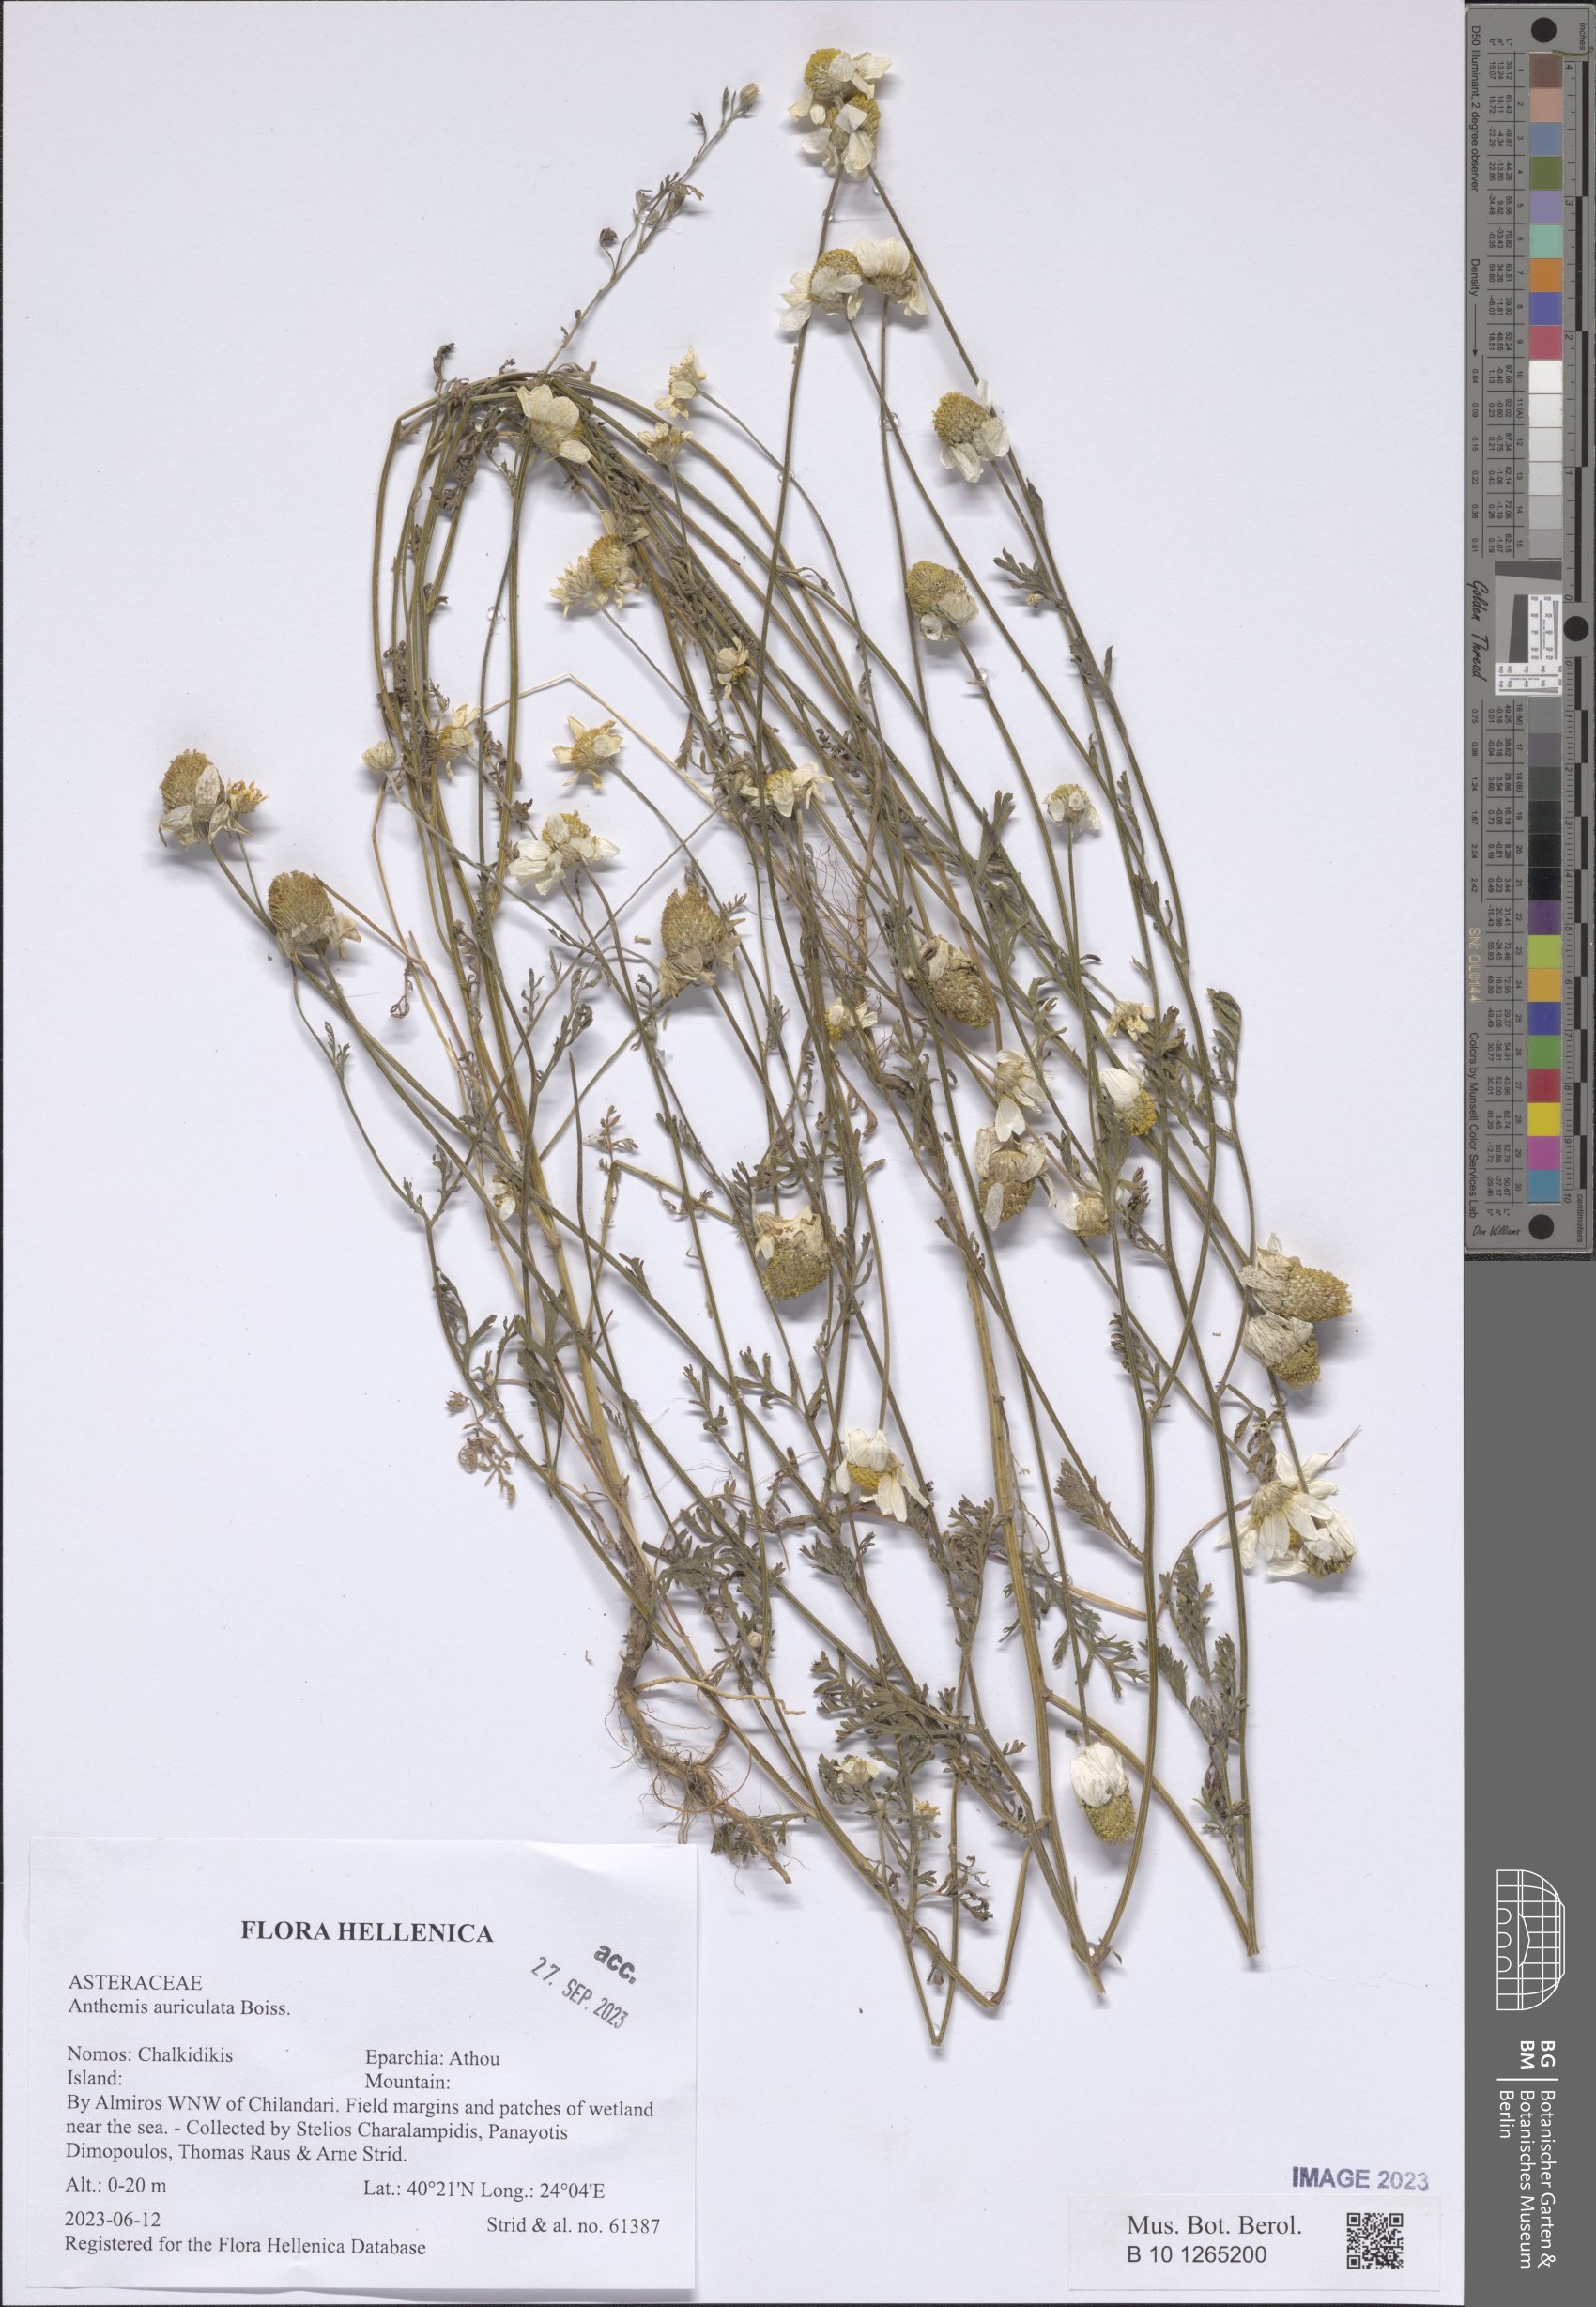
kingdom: Plantae
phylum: Tracheophyta
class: Magnoliopsida
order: Asterales
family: Asteraceae
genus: Anthemis
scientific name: Anthemis auriculata
